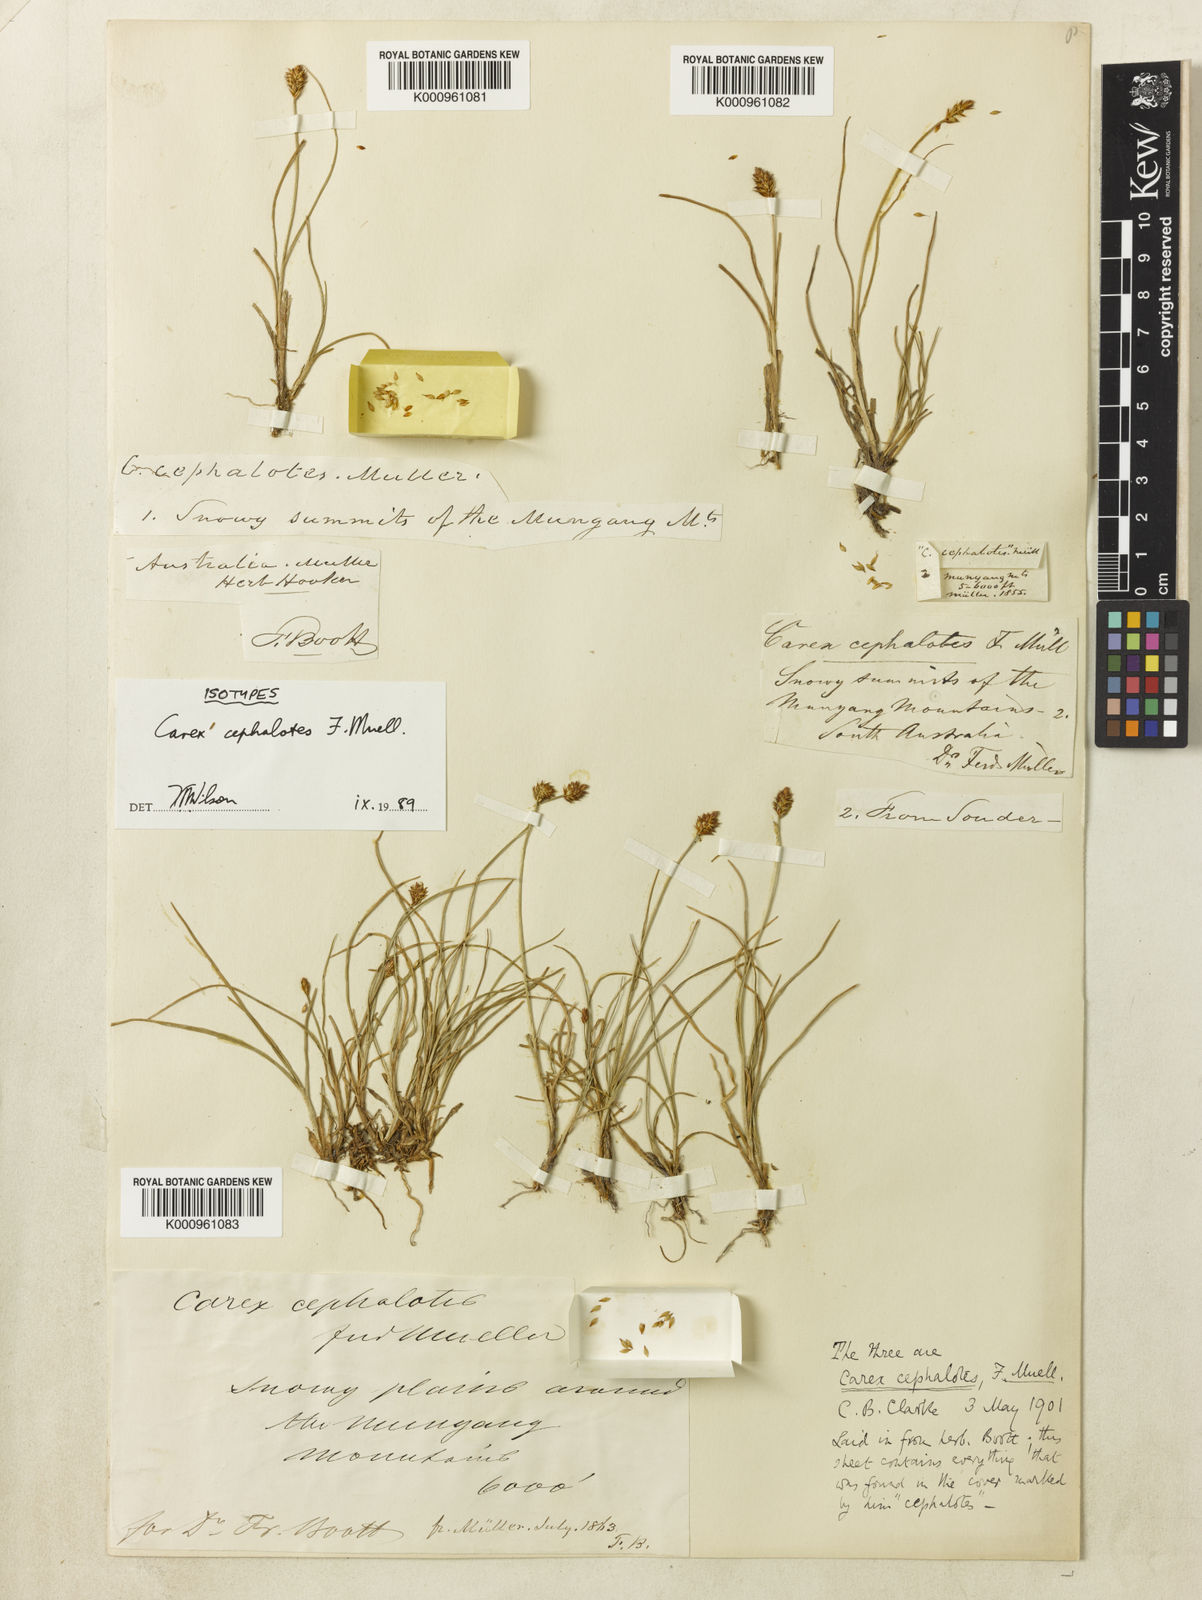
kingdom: Plantae
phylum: Tracheophyta
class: Liliopsida
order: Poales
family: Cyperaceae
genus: Carex
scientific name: Carex cephalotes
